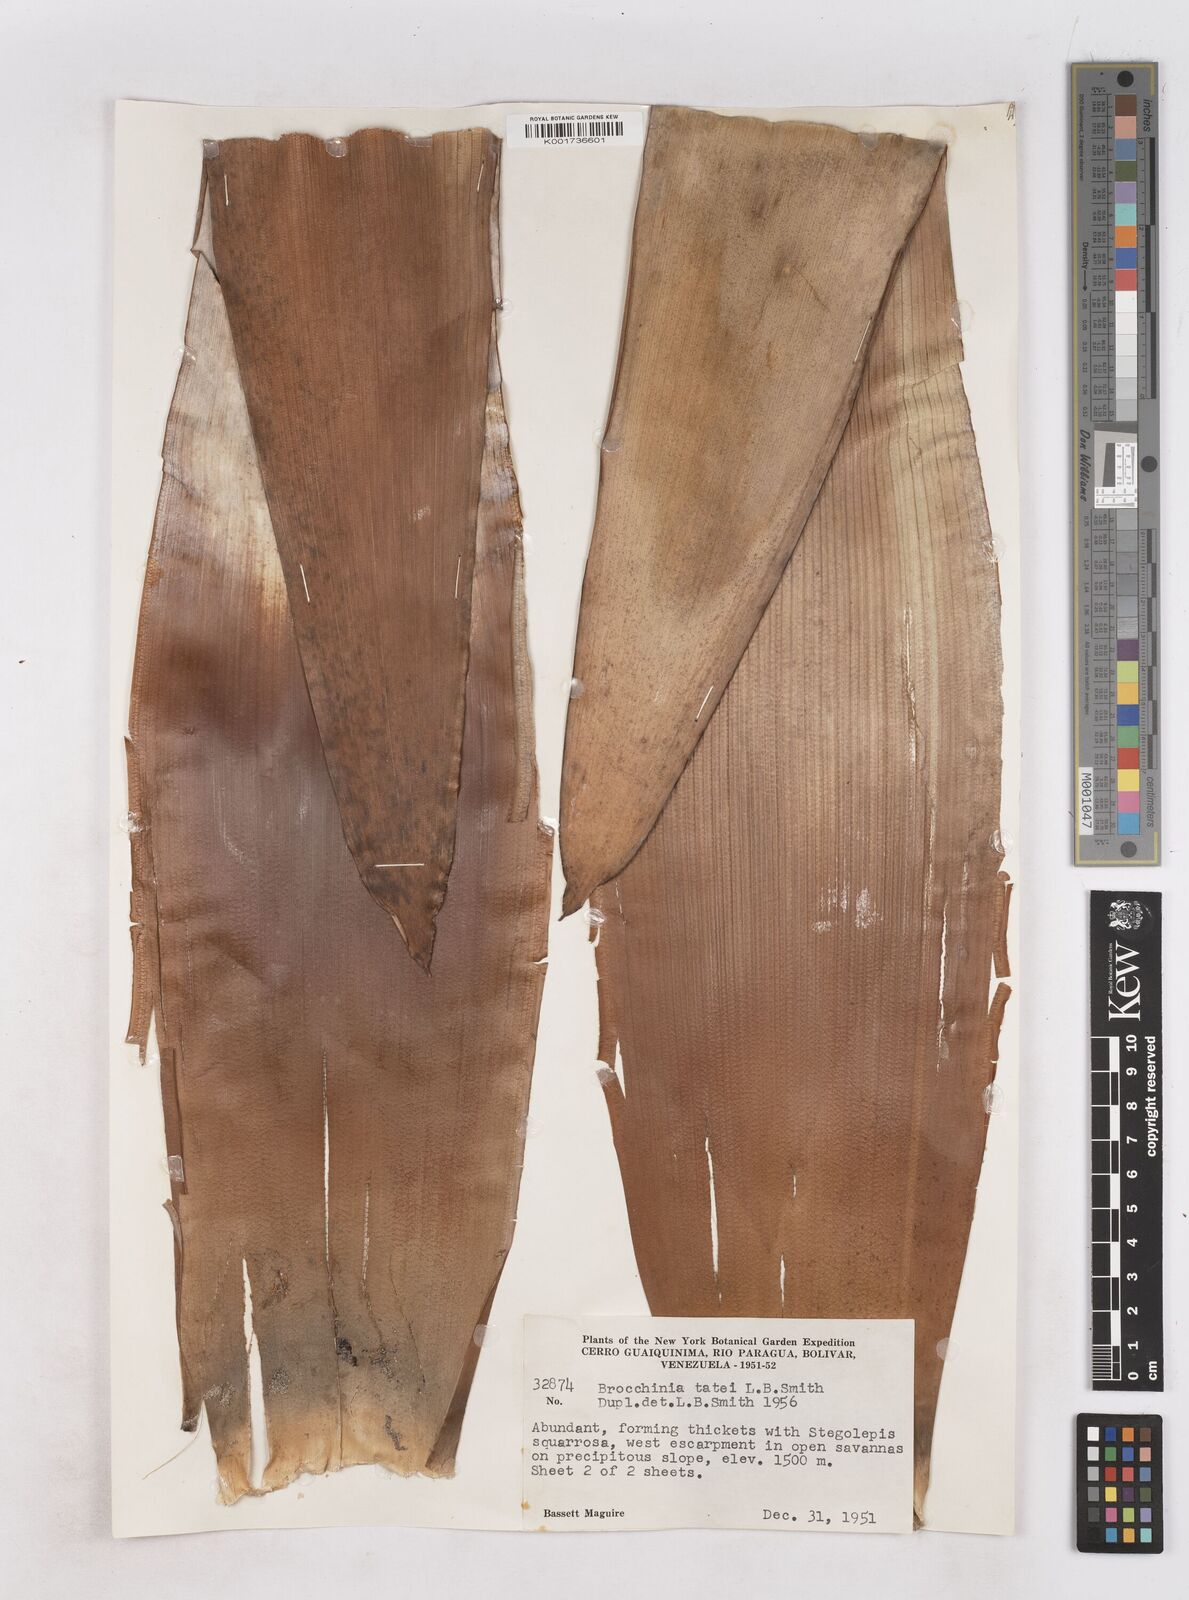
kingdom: Plantae
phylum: Tracheophyta
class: Liliopsida
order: Poales
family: Bromeliaceae
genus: Brocchinia
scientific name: Brocchinia tatei
